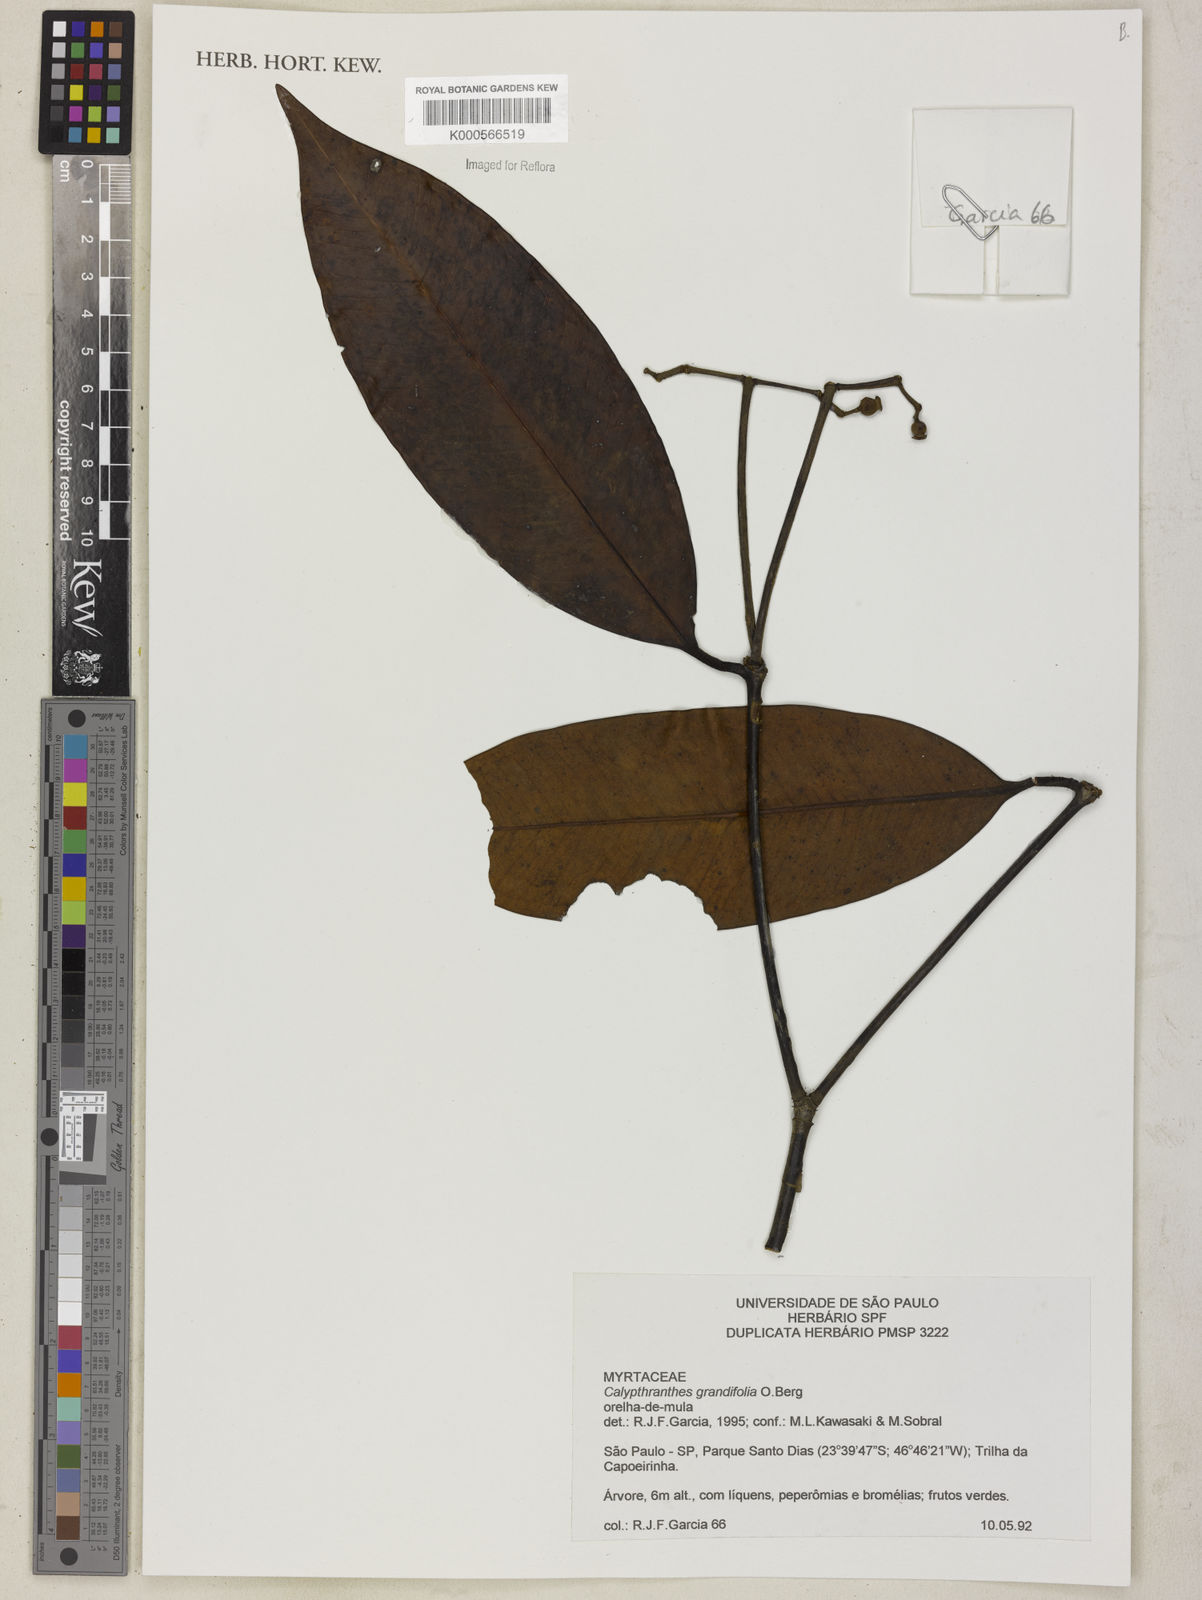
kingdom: Plantae
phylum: Tracheophyta
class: Magnoliopsida
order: Myrtales
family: Myrtaceae
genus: Calyptranthes
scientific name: Calyptranthes grandifolia
